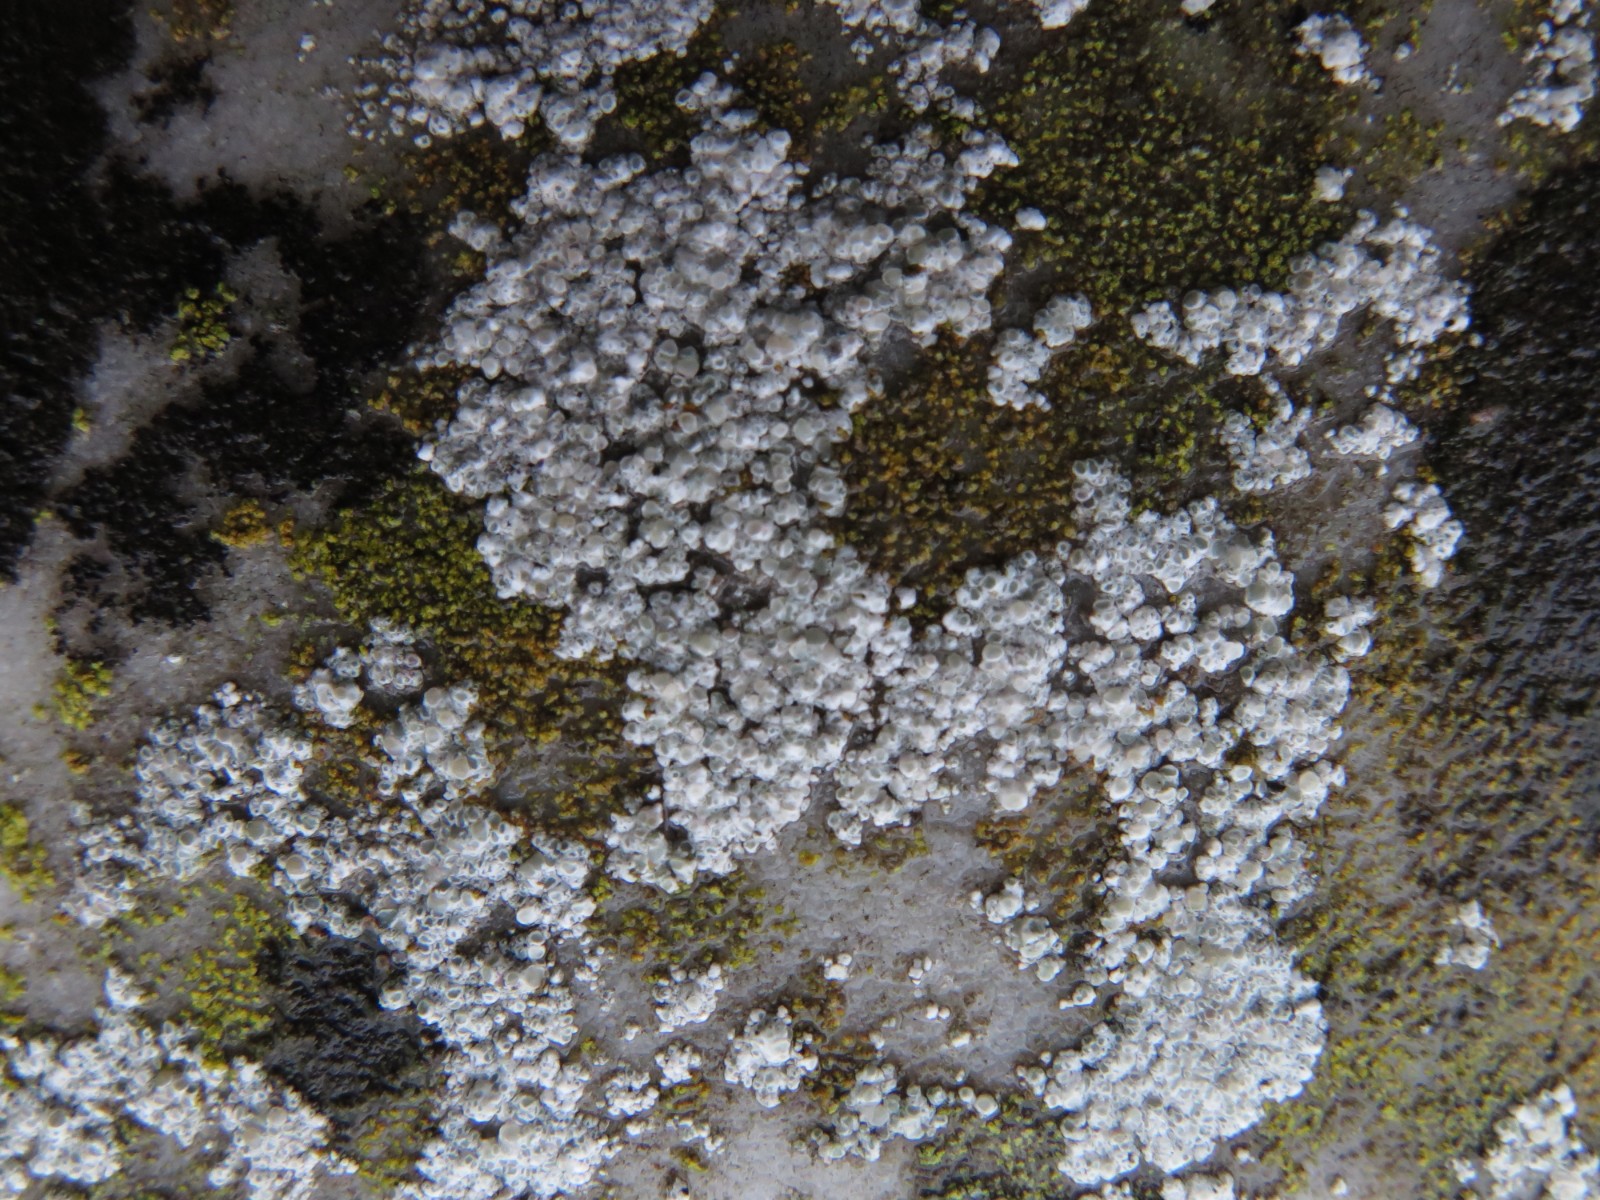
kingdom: Fungi
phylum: Ascomycota
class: Lecanoromycetes
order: Lecanorales
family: Lecanoraceae
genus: Polyozosia
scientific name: Polyozosia albescens
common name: cement-kantskivelav
